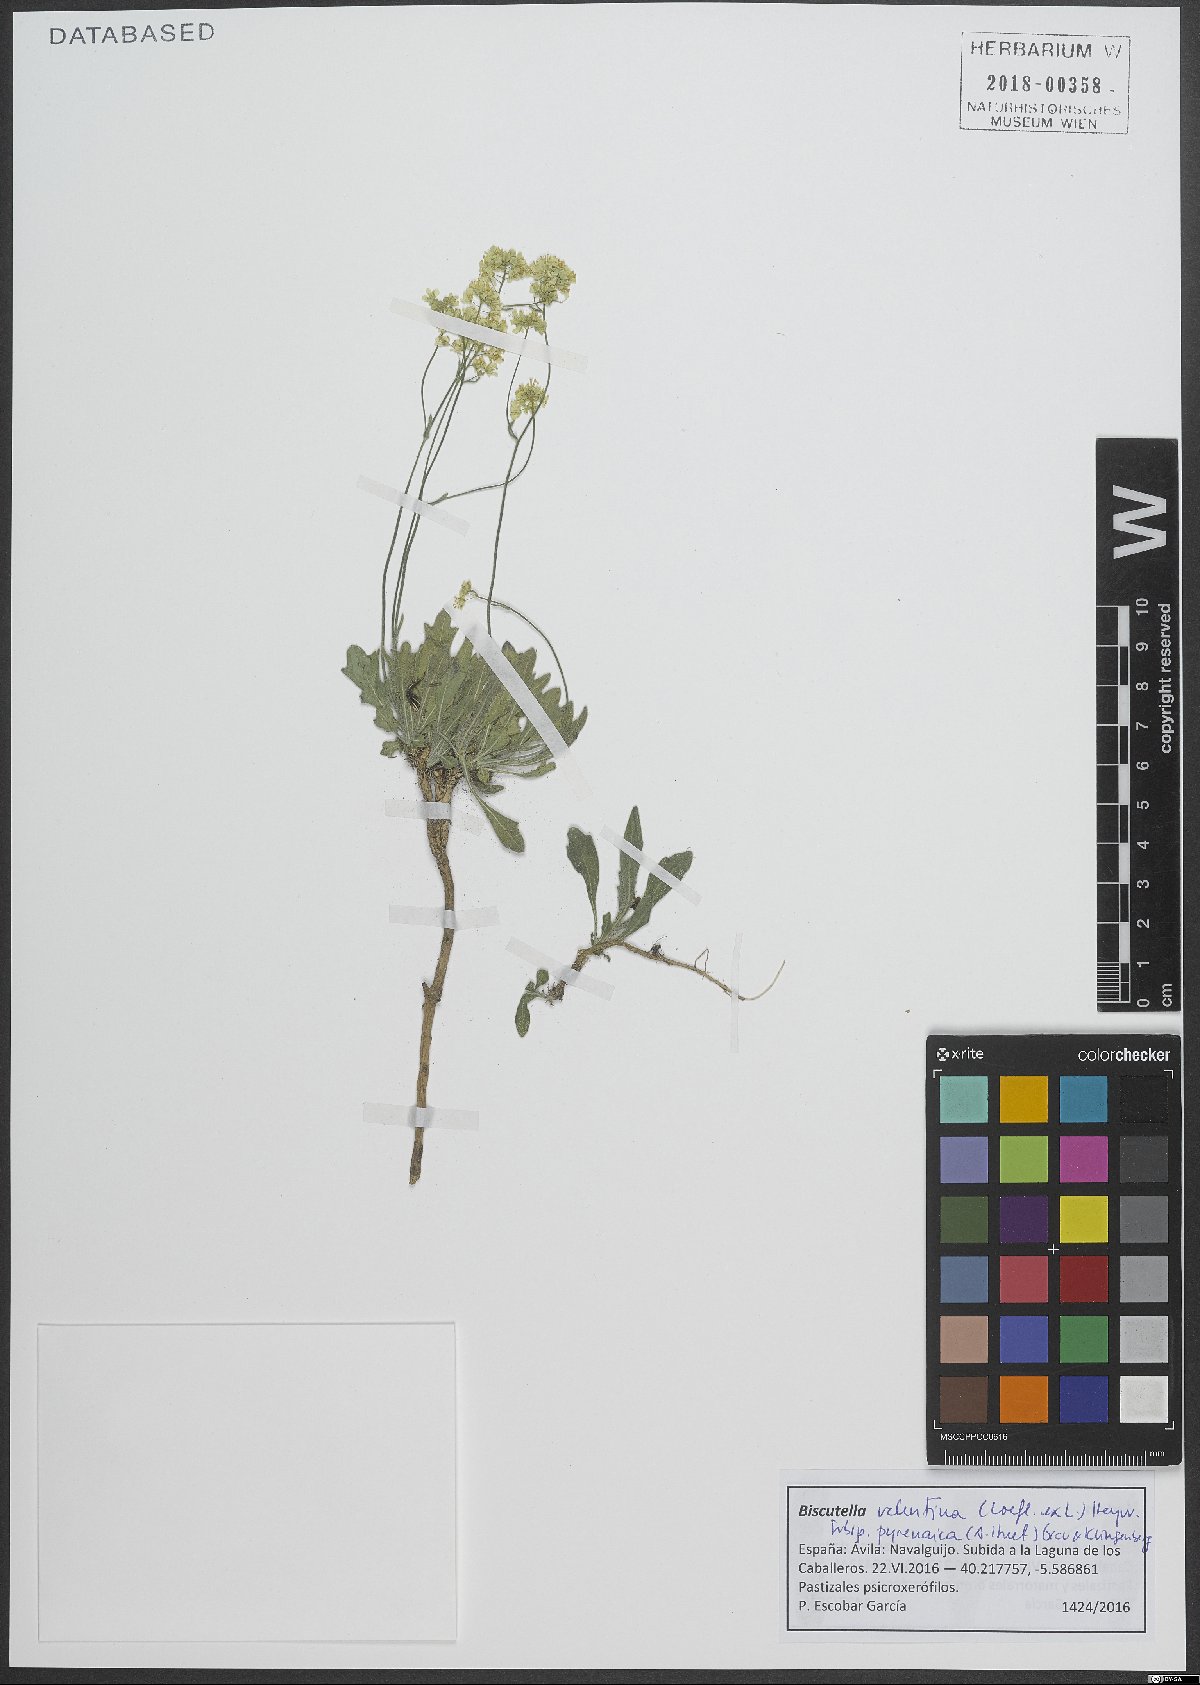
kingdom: Plantae
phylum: Tracheophyta
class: Magnoliopsida
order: Brassicales
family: Brassicaceae
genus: Biscutella
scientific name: Biscutella intermedia
